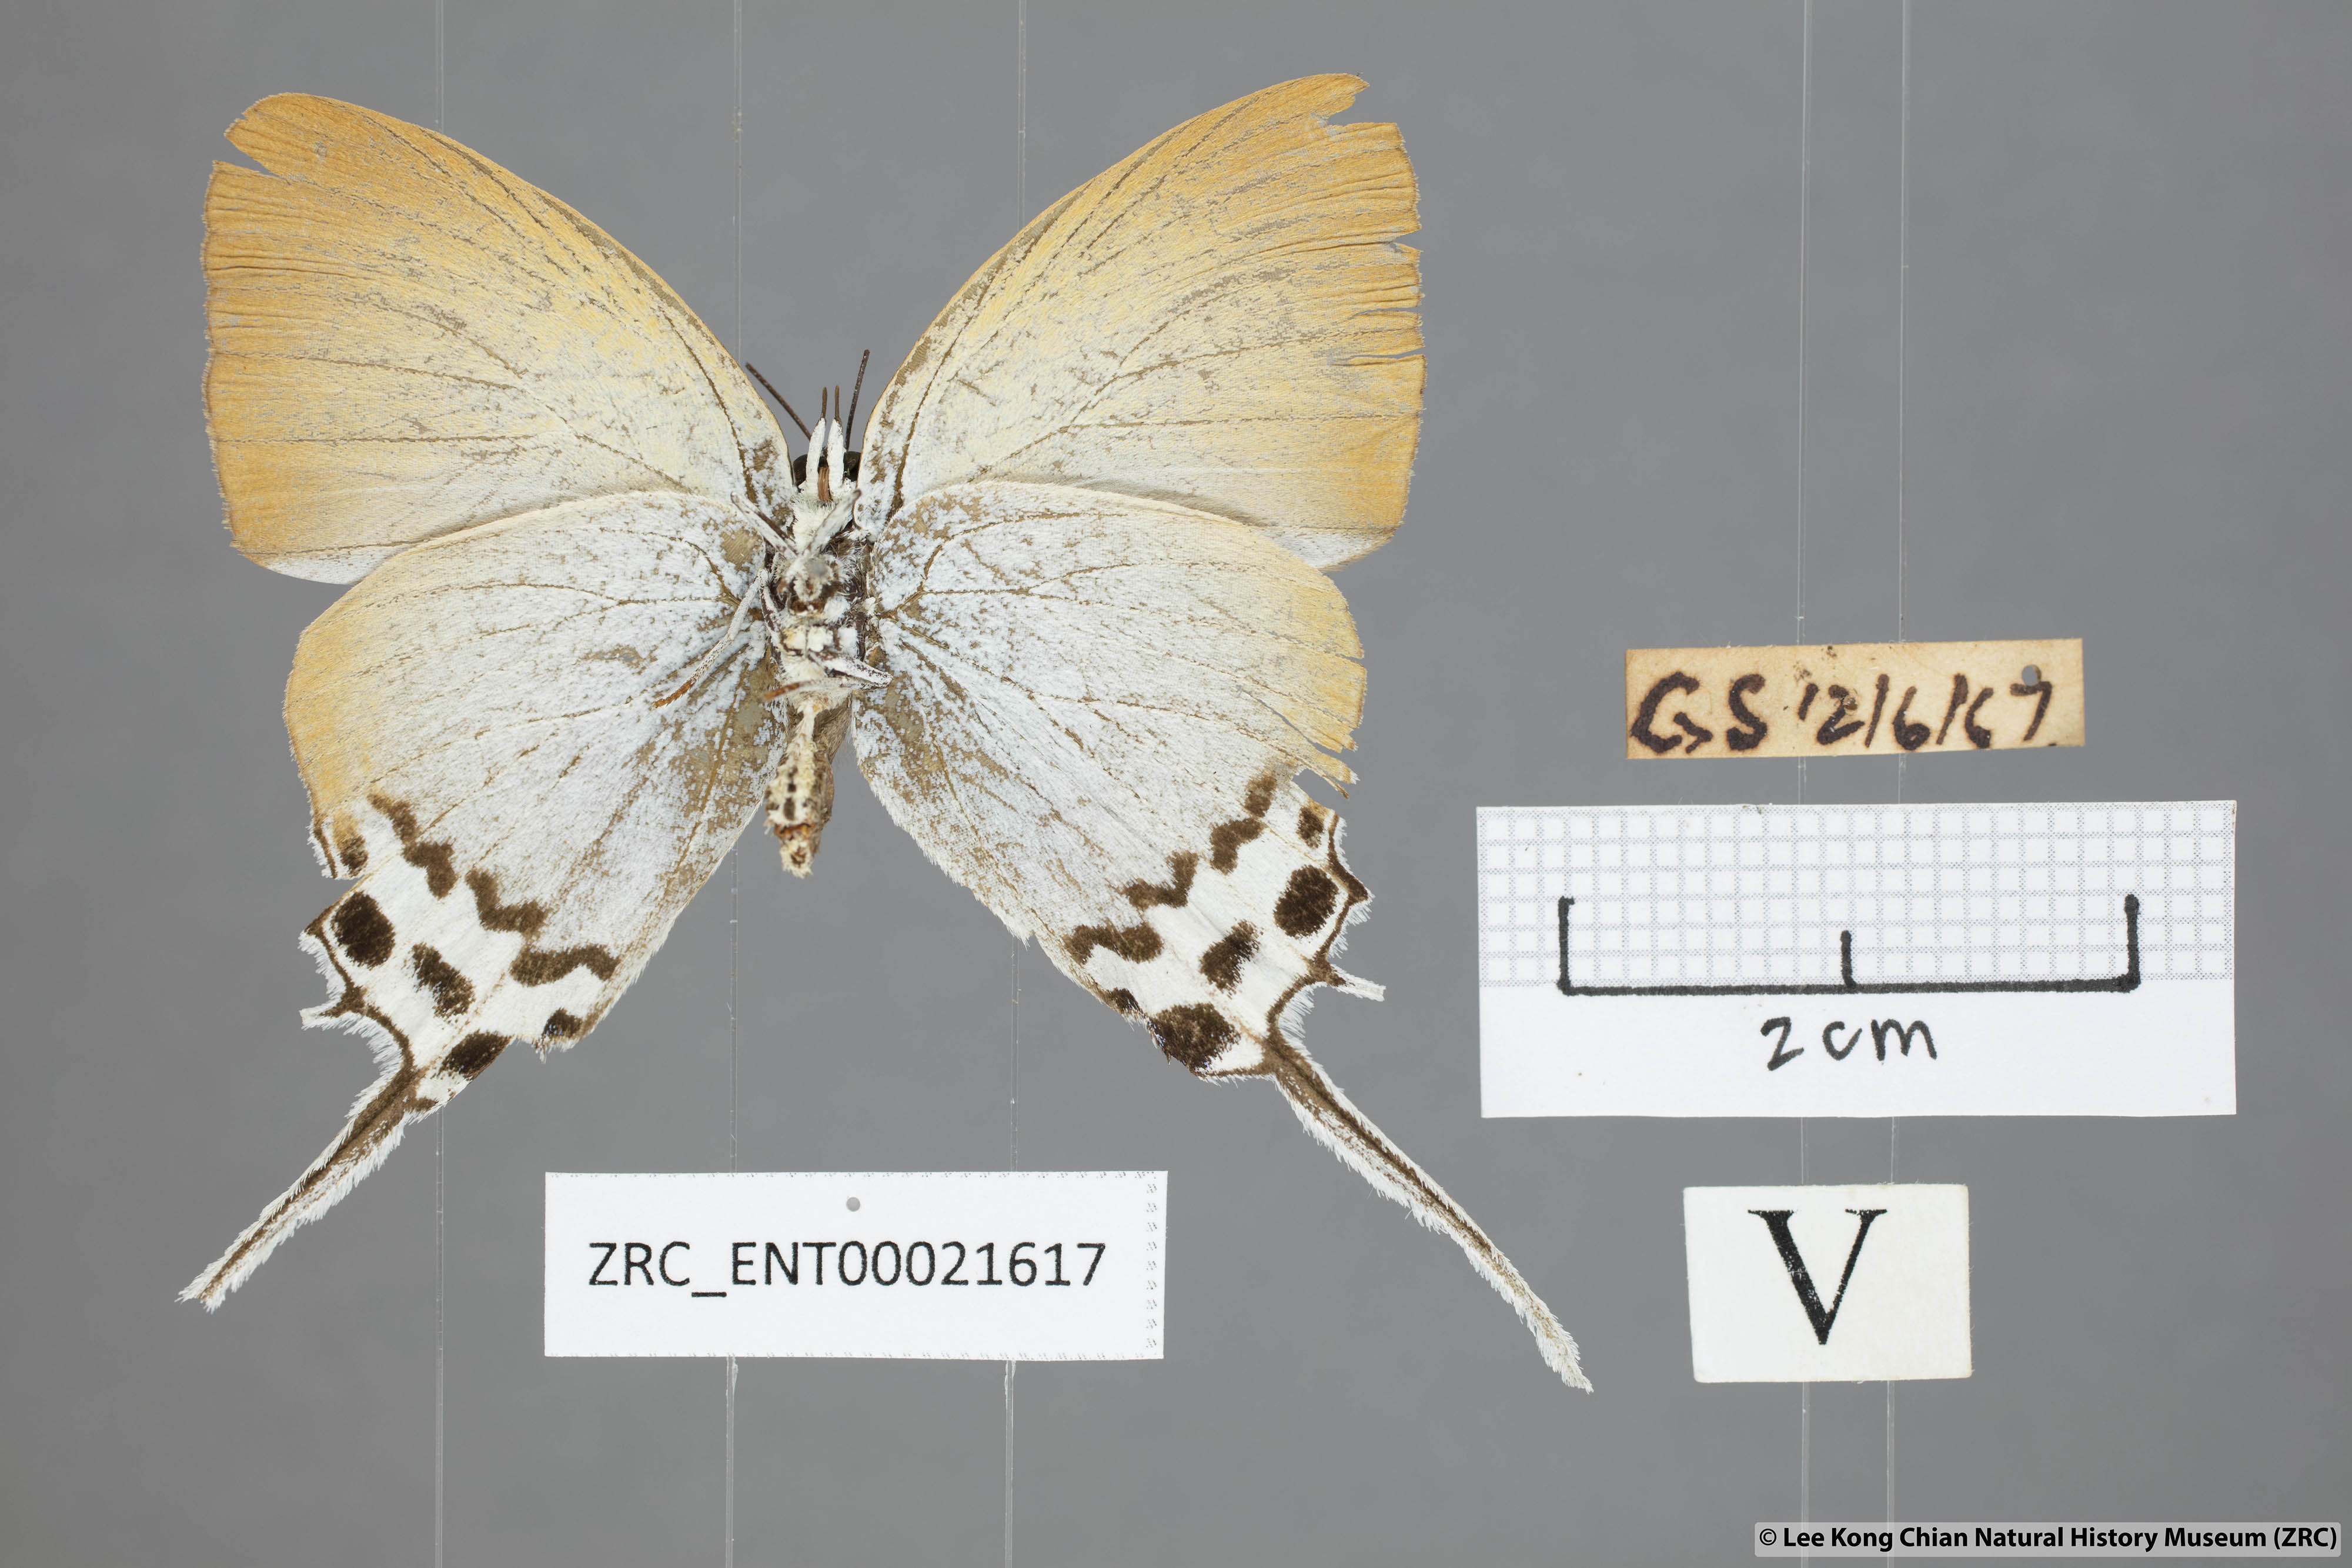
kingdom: Animalia
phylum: Arthropoda
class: Insecta
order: Lepidoptera
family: Lycaenidae
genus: Jacoona
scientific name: Jacoona anasuja
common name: Great imperial
